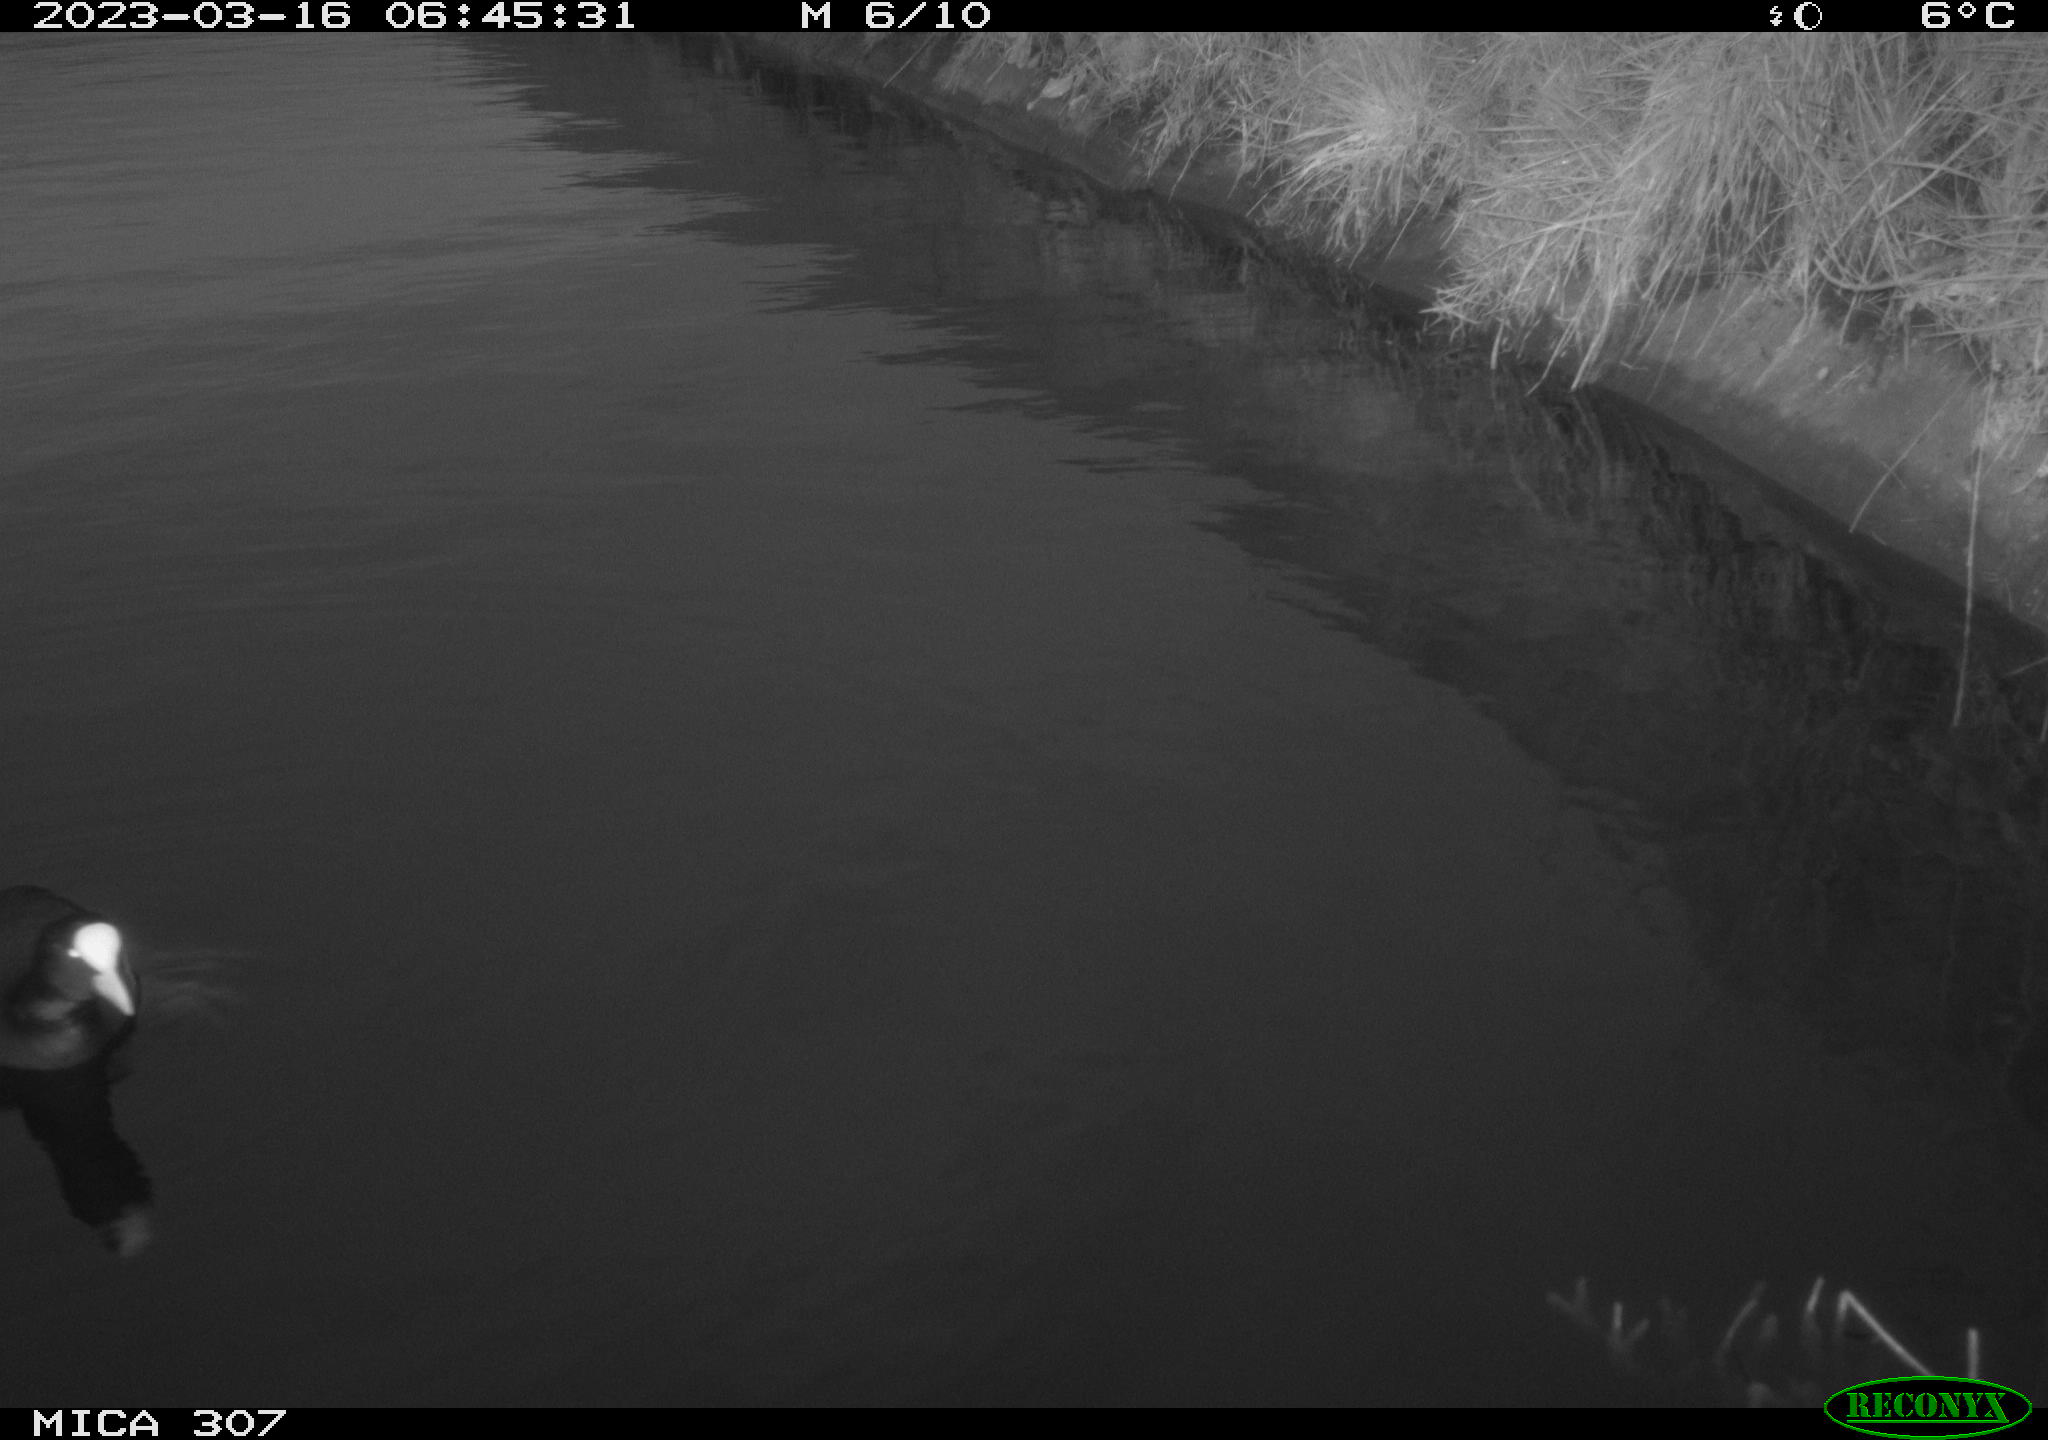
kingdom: Animalia
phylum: Chordata
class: Aves
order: Gruiformes
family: Rallidae
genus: Fulica
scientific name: Fulica atra
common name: Eurasian coot
